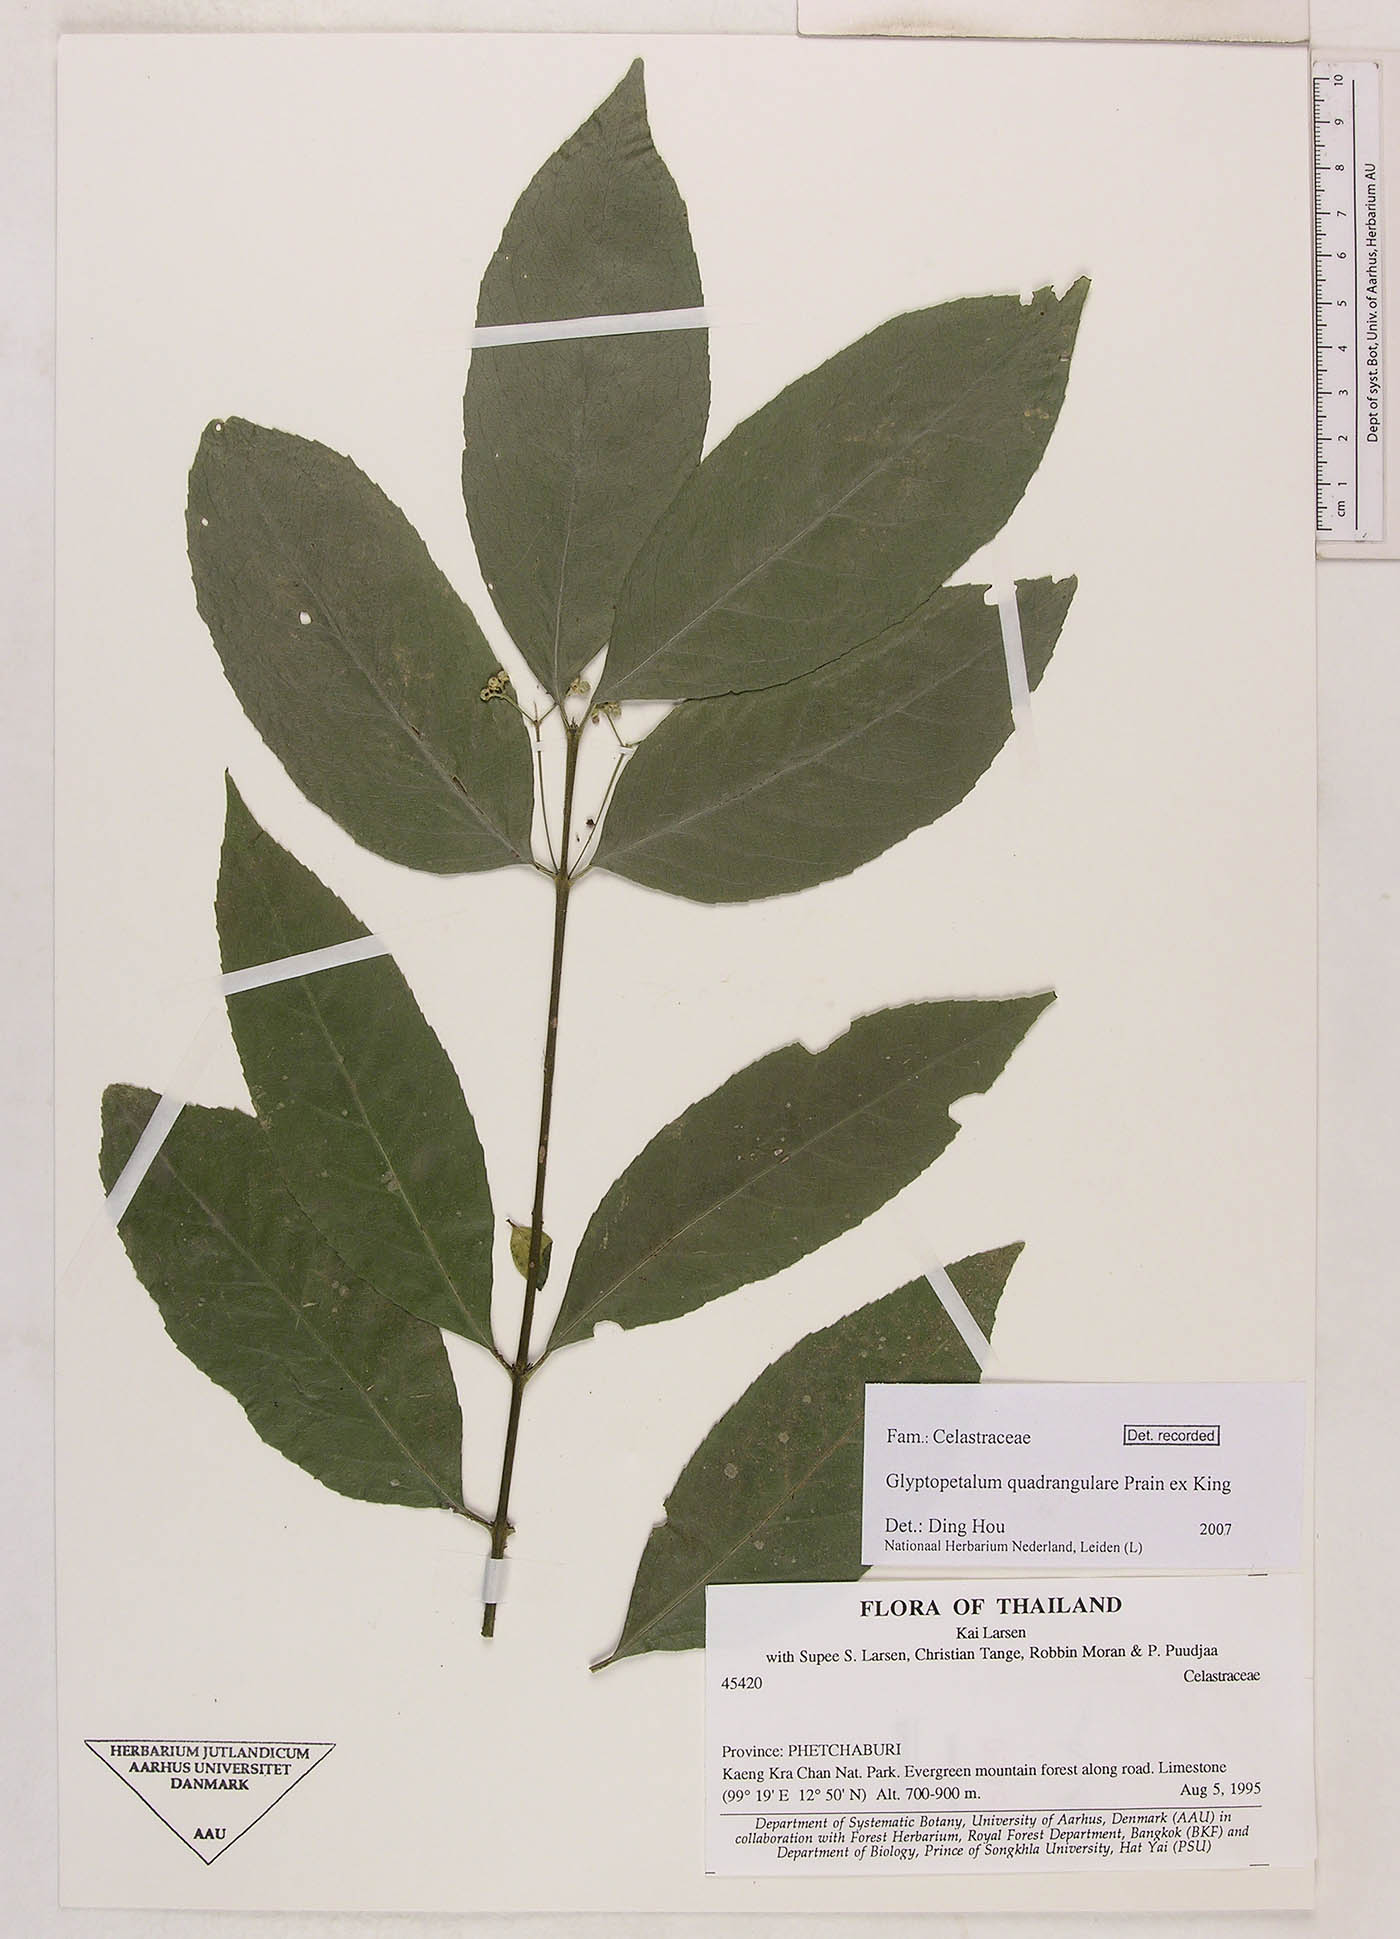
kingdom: Plantae
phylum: Tracheophyta
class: Magnoliopsida
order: Celastrales
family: Celastraceae
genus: Euonymus
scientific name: Euonymus quadrangularis
